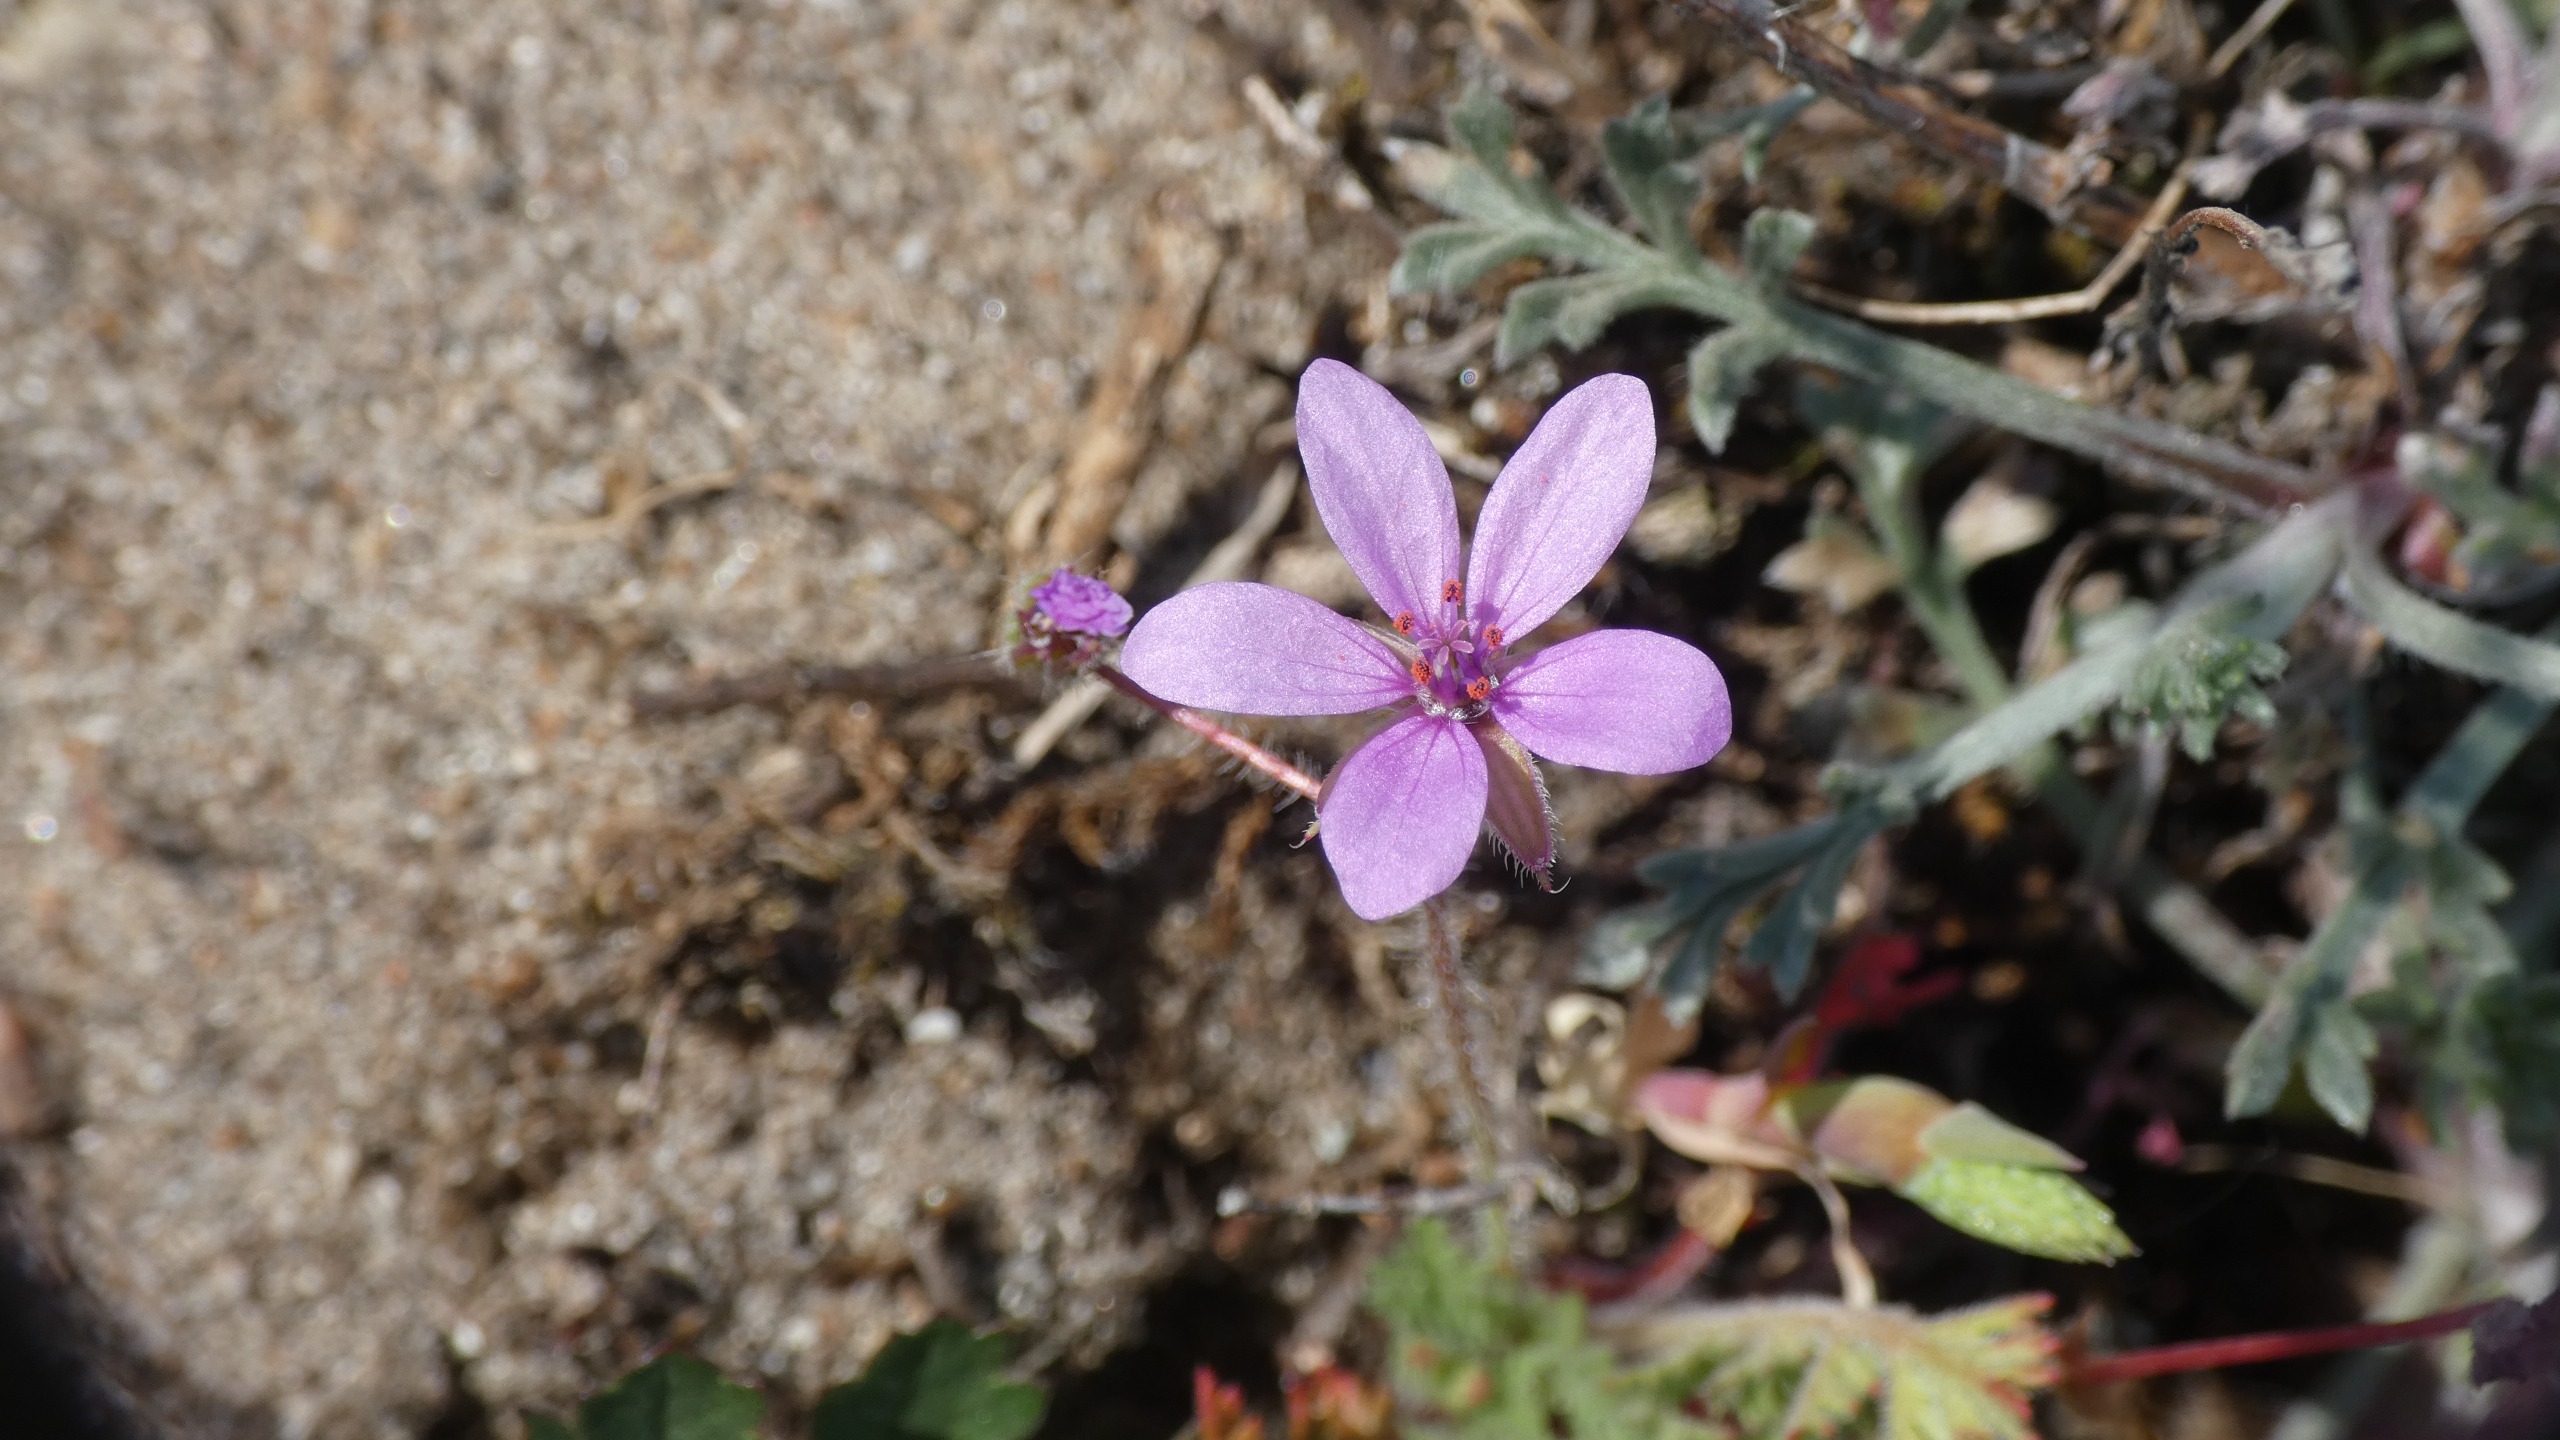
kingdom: Plantae
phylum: Tracheophyta
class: Magnoliopsida
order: Geraniales
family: Geraniaceae
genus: Erodium
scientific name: Erodium cicutarium
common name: Hejrenæb
